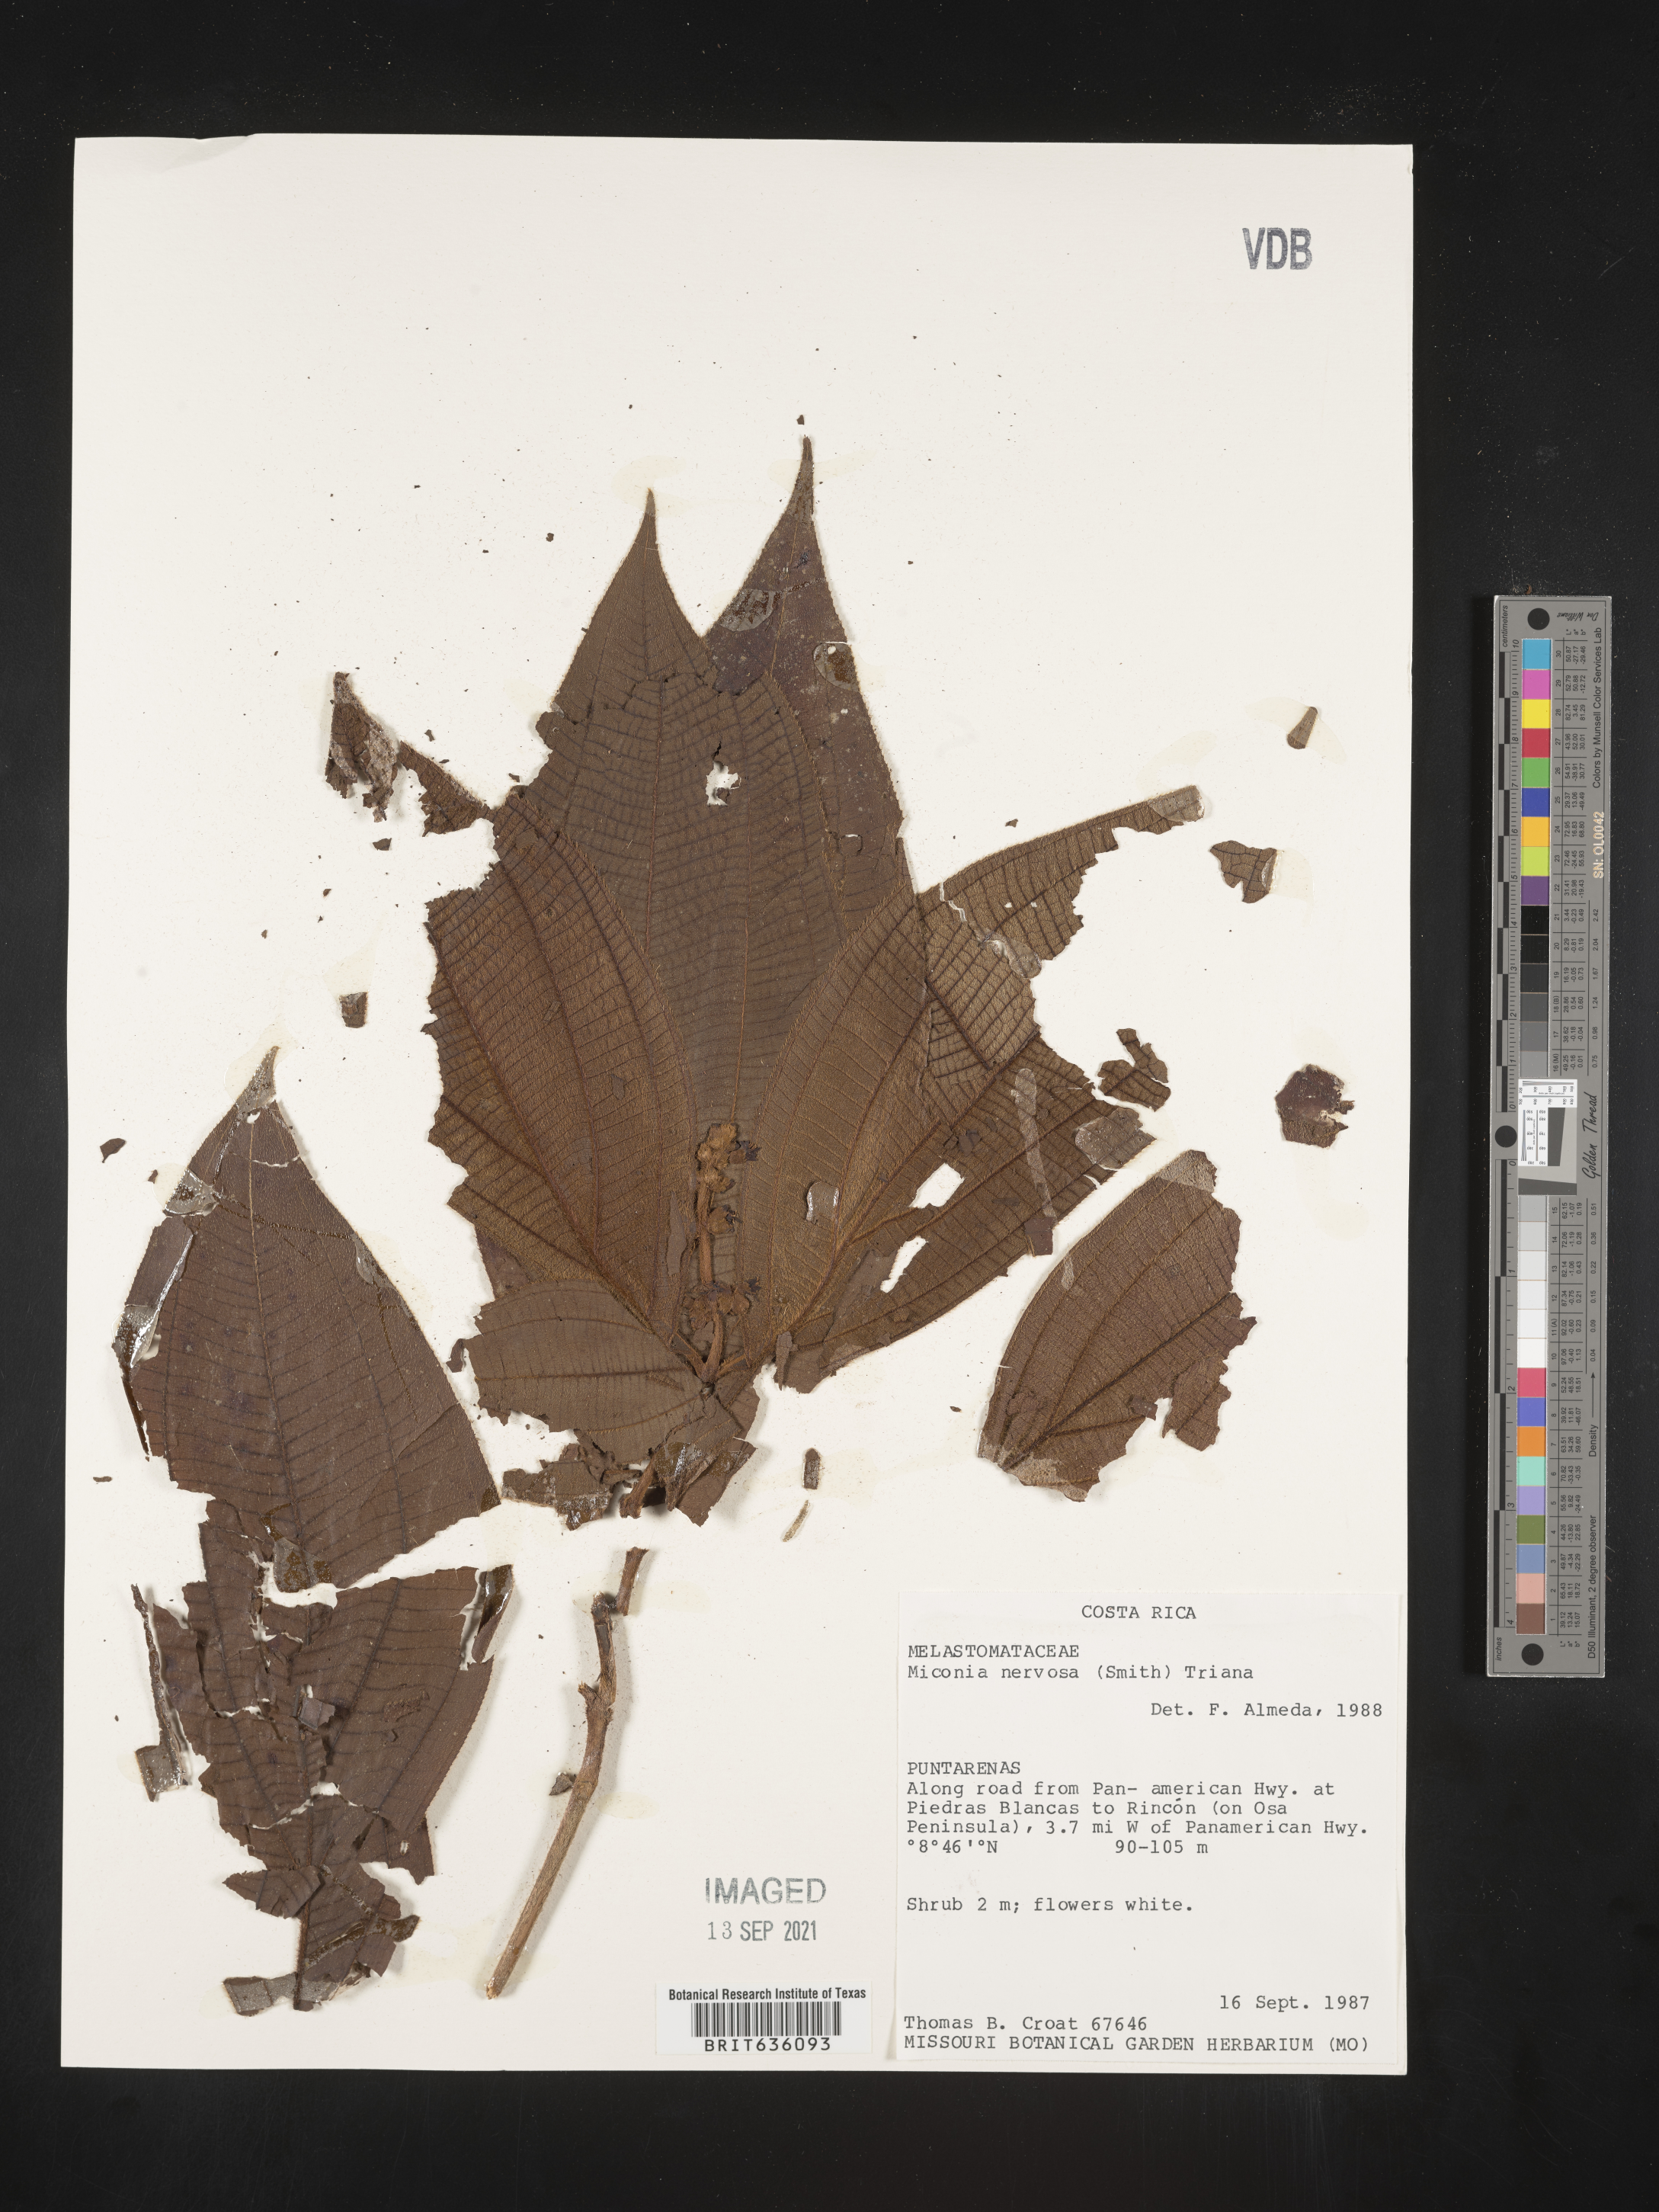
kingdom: Plantae
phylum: Tracheophyta
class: Magnoliopsida
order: Myrtales
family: Melastomataceae
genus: Miconia
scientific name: Miconia
